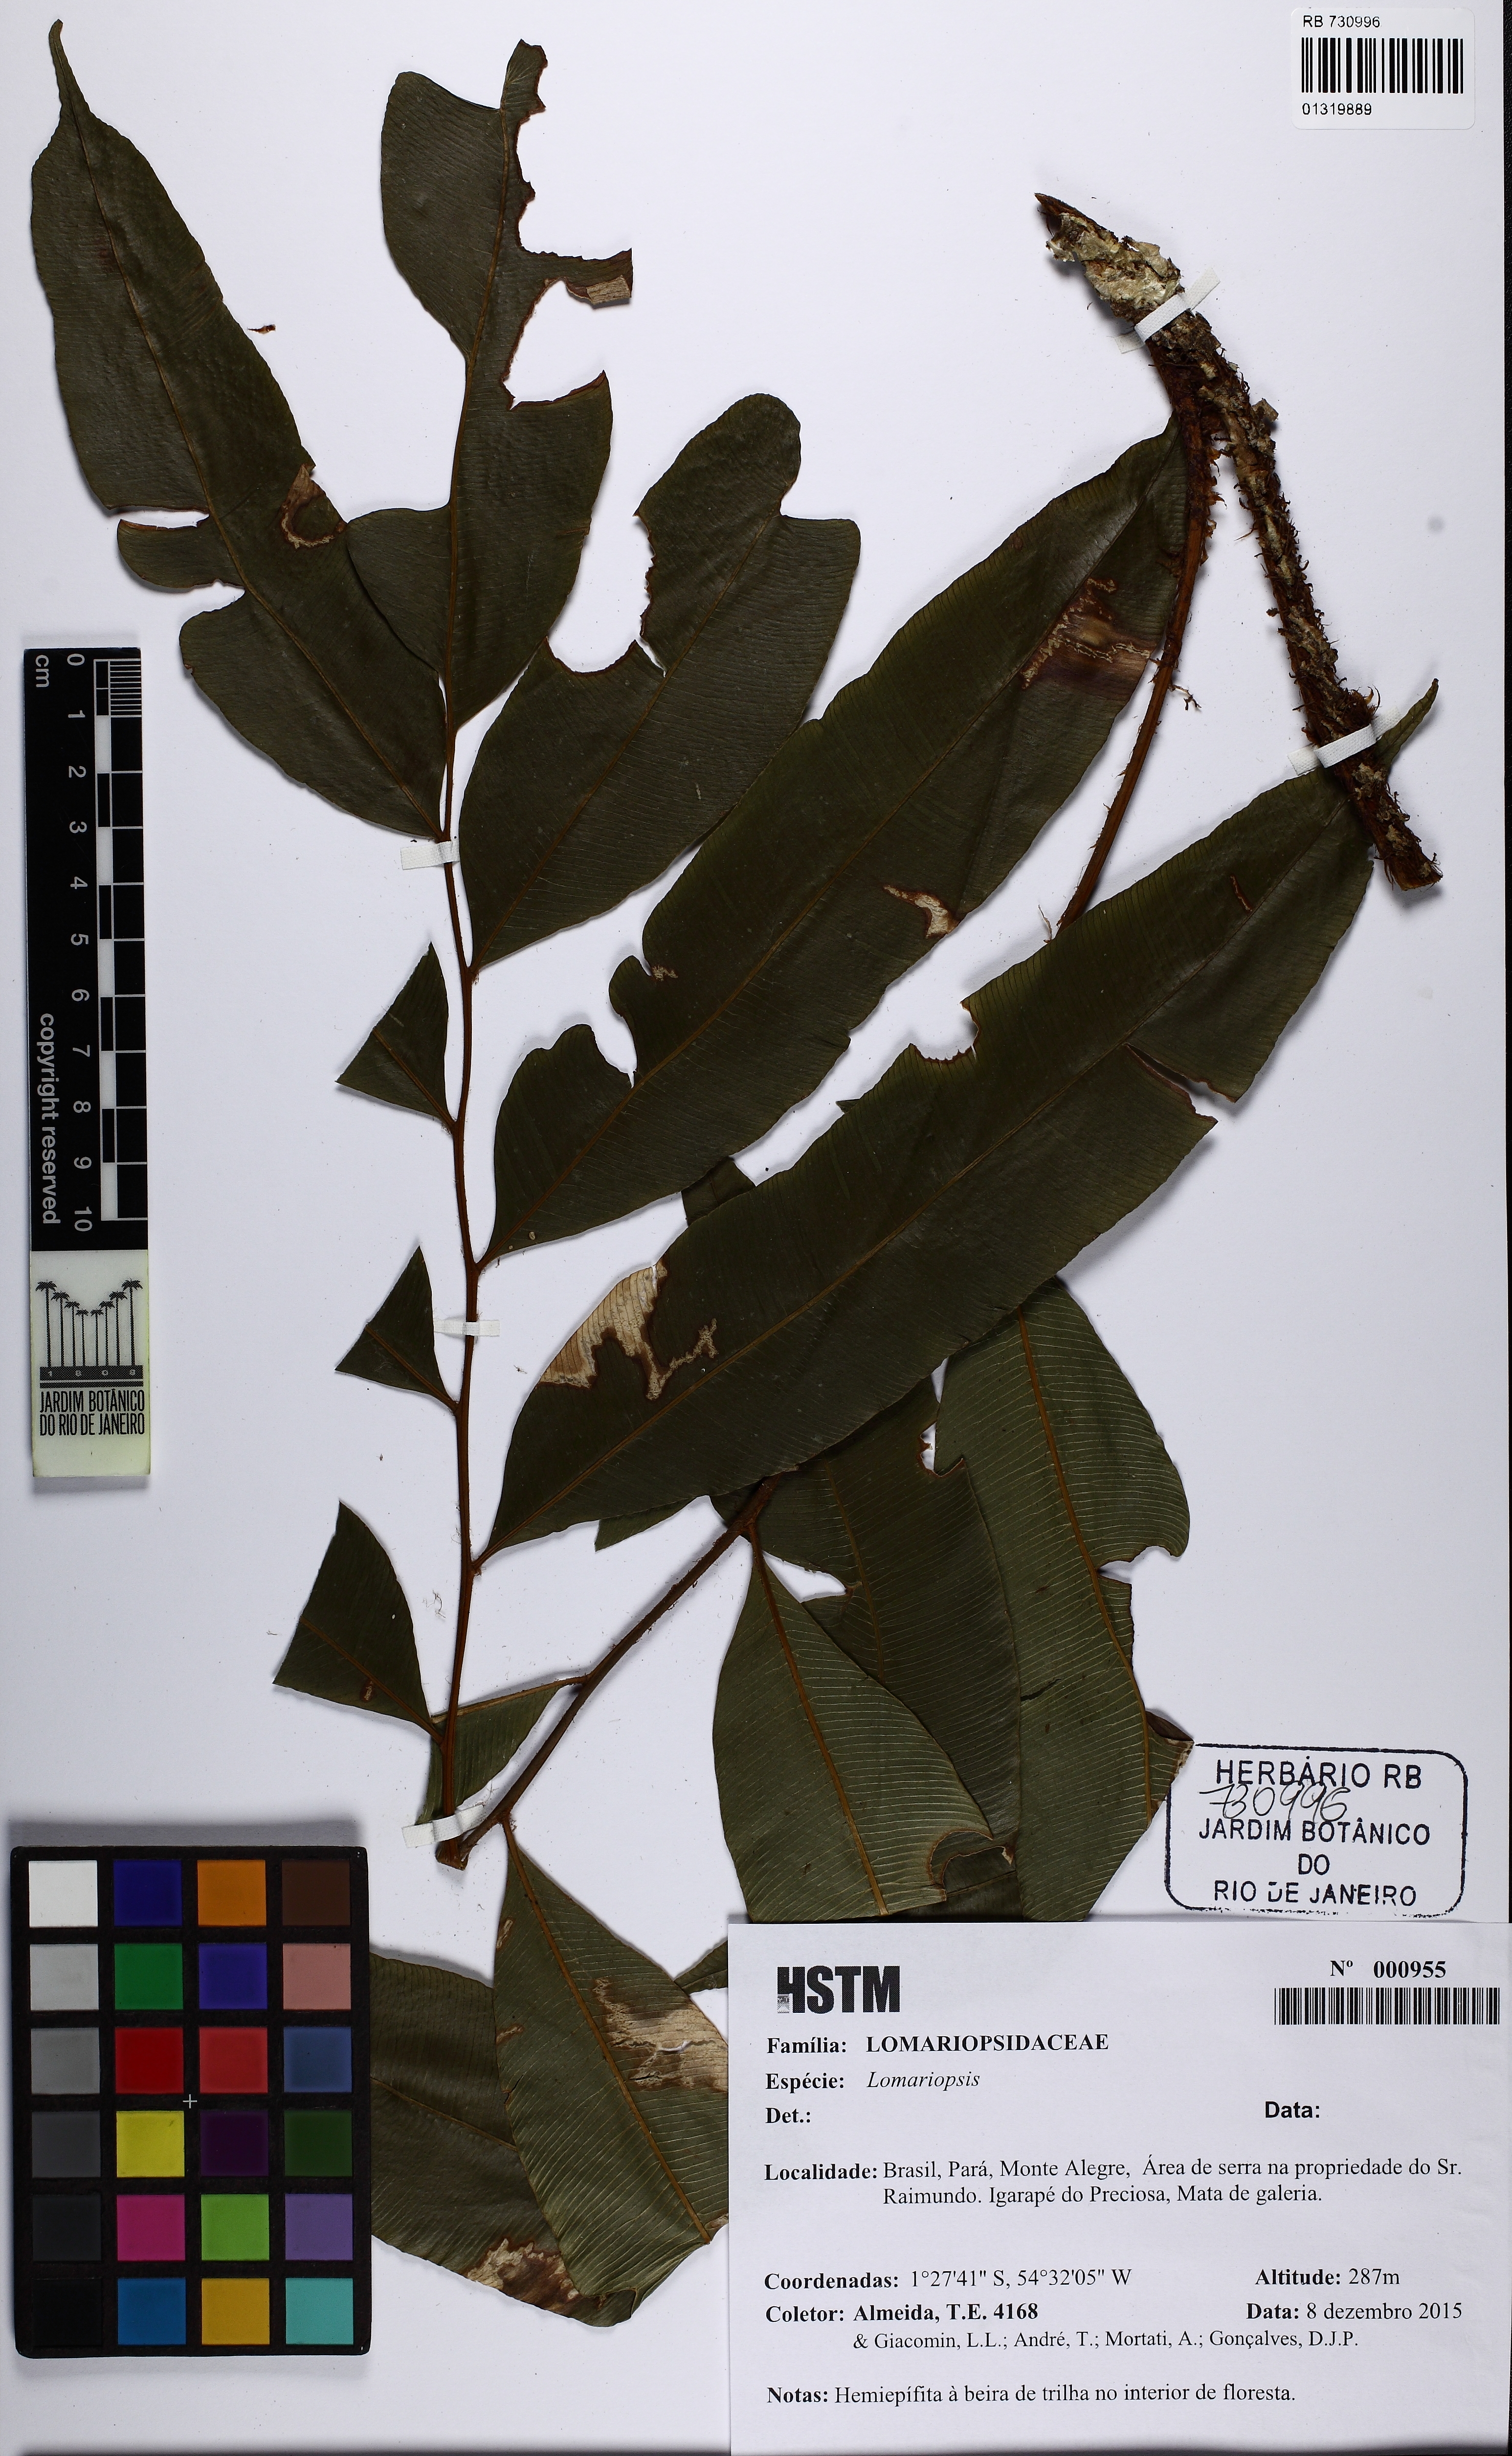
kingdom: Plantae
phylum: Tracheophyta
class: Polypodiopsida
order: Polypodiales
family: Lomariopsidaceae
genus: Lomariopsis
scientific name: Lomariopsis
